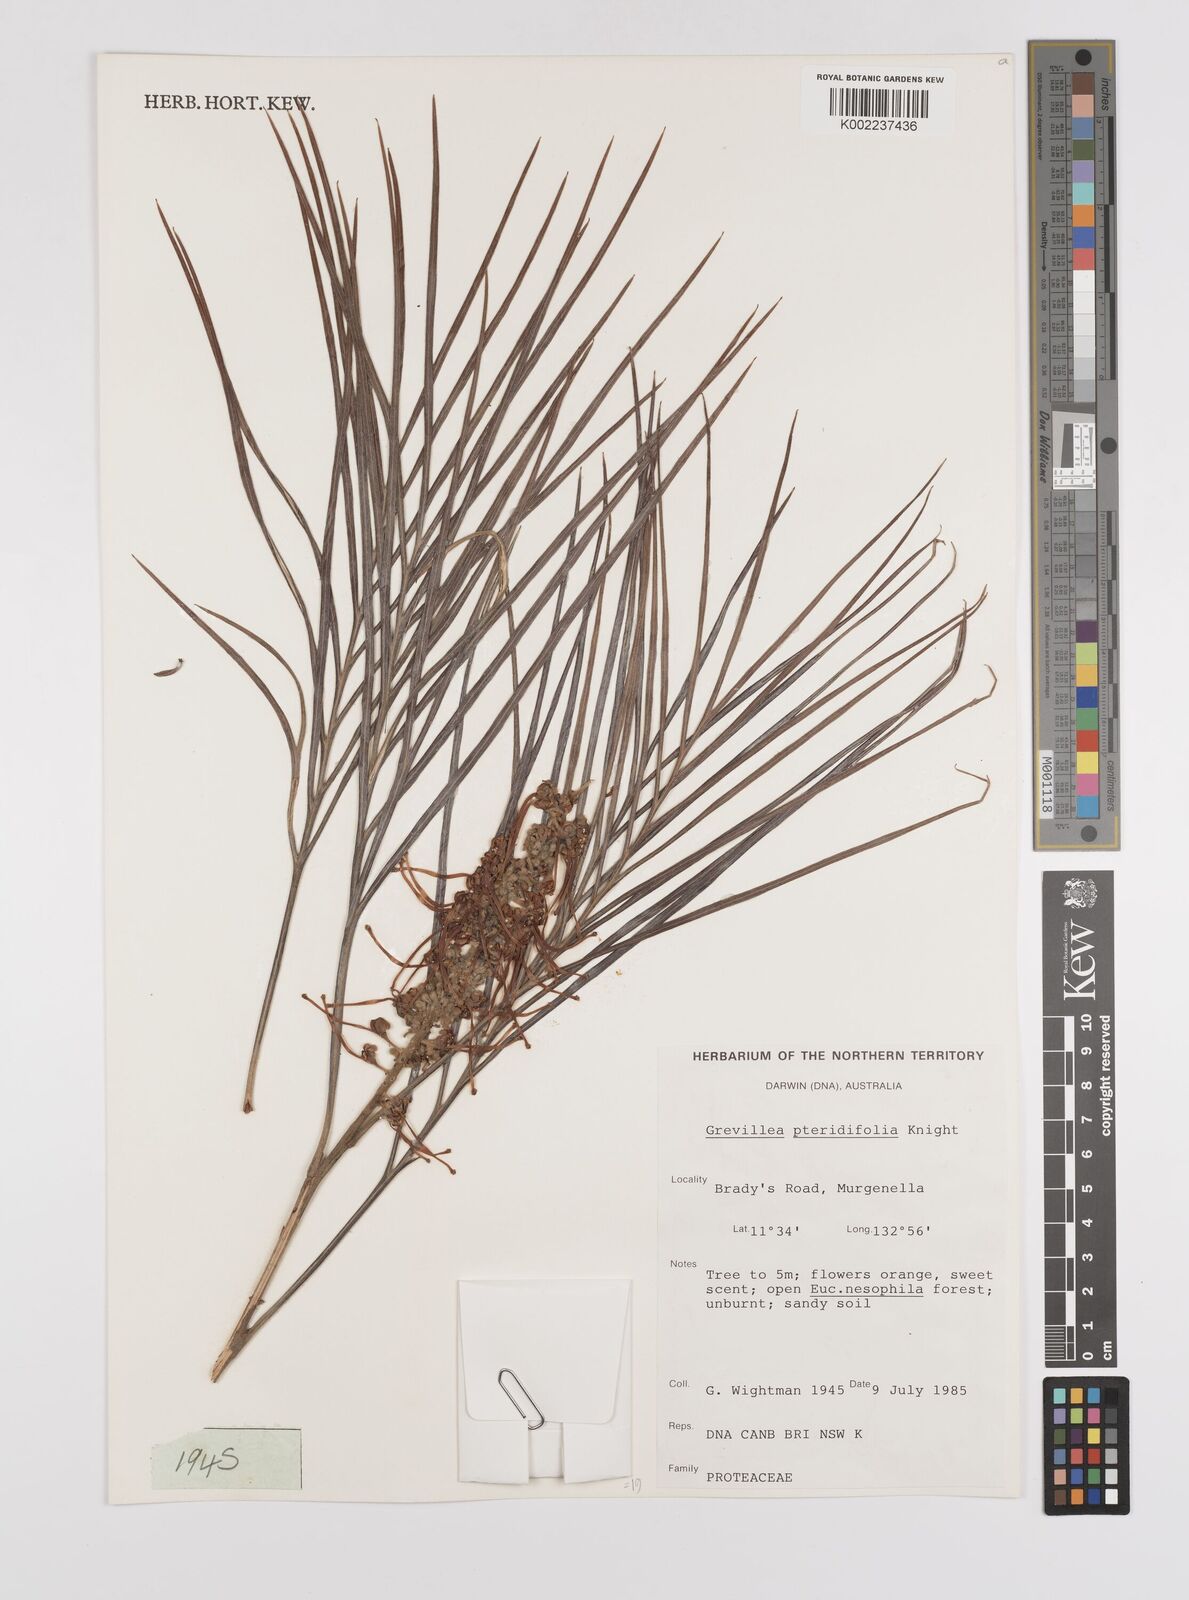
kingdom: Plantae
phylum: Tracheophyta
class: Magnoliopsida
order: Proteales
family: Proteaceae
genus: Grevillea
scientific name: Grevillea pteridifolia
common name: Golden grevillea
